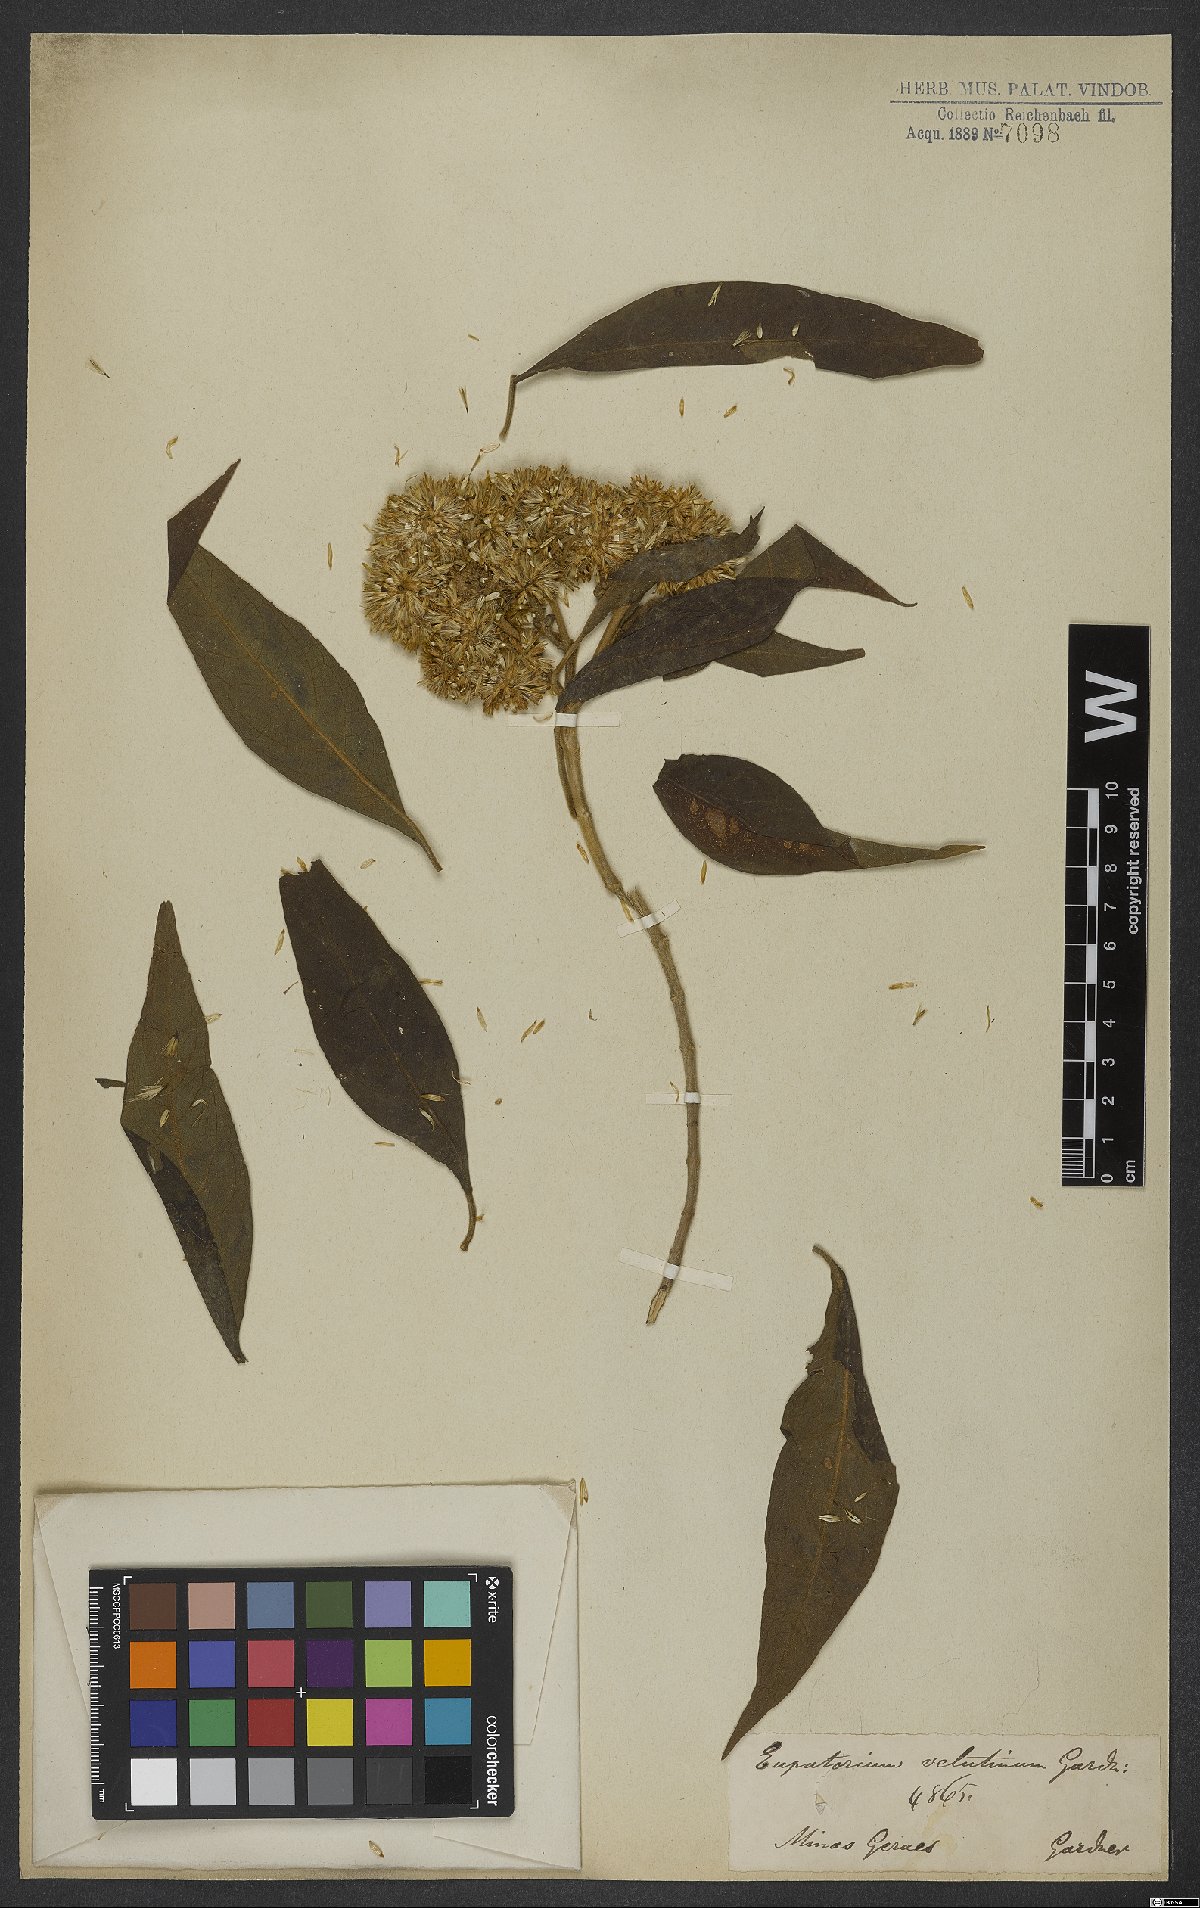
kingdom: Plantae
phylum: Tracheophyta
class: Magnoliopsida
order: Asterales
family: Asteraceae
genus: Austrocritonia
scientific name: Austrocritonia velutina
